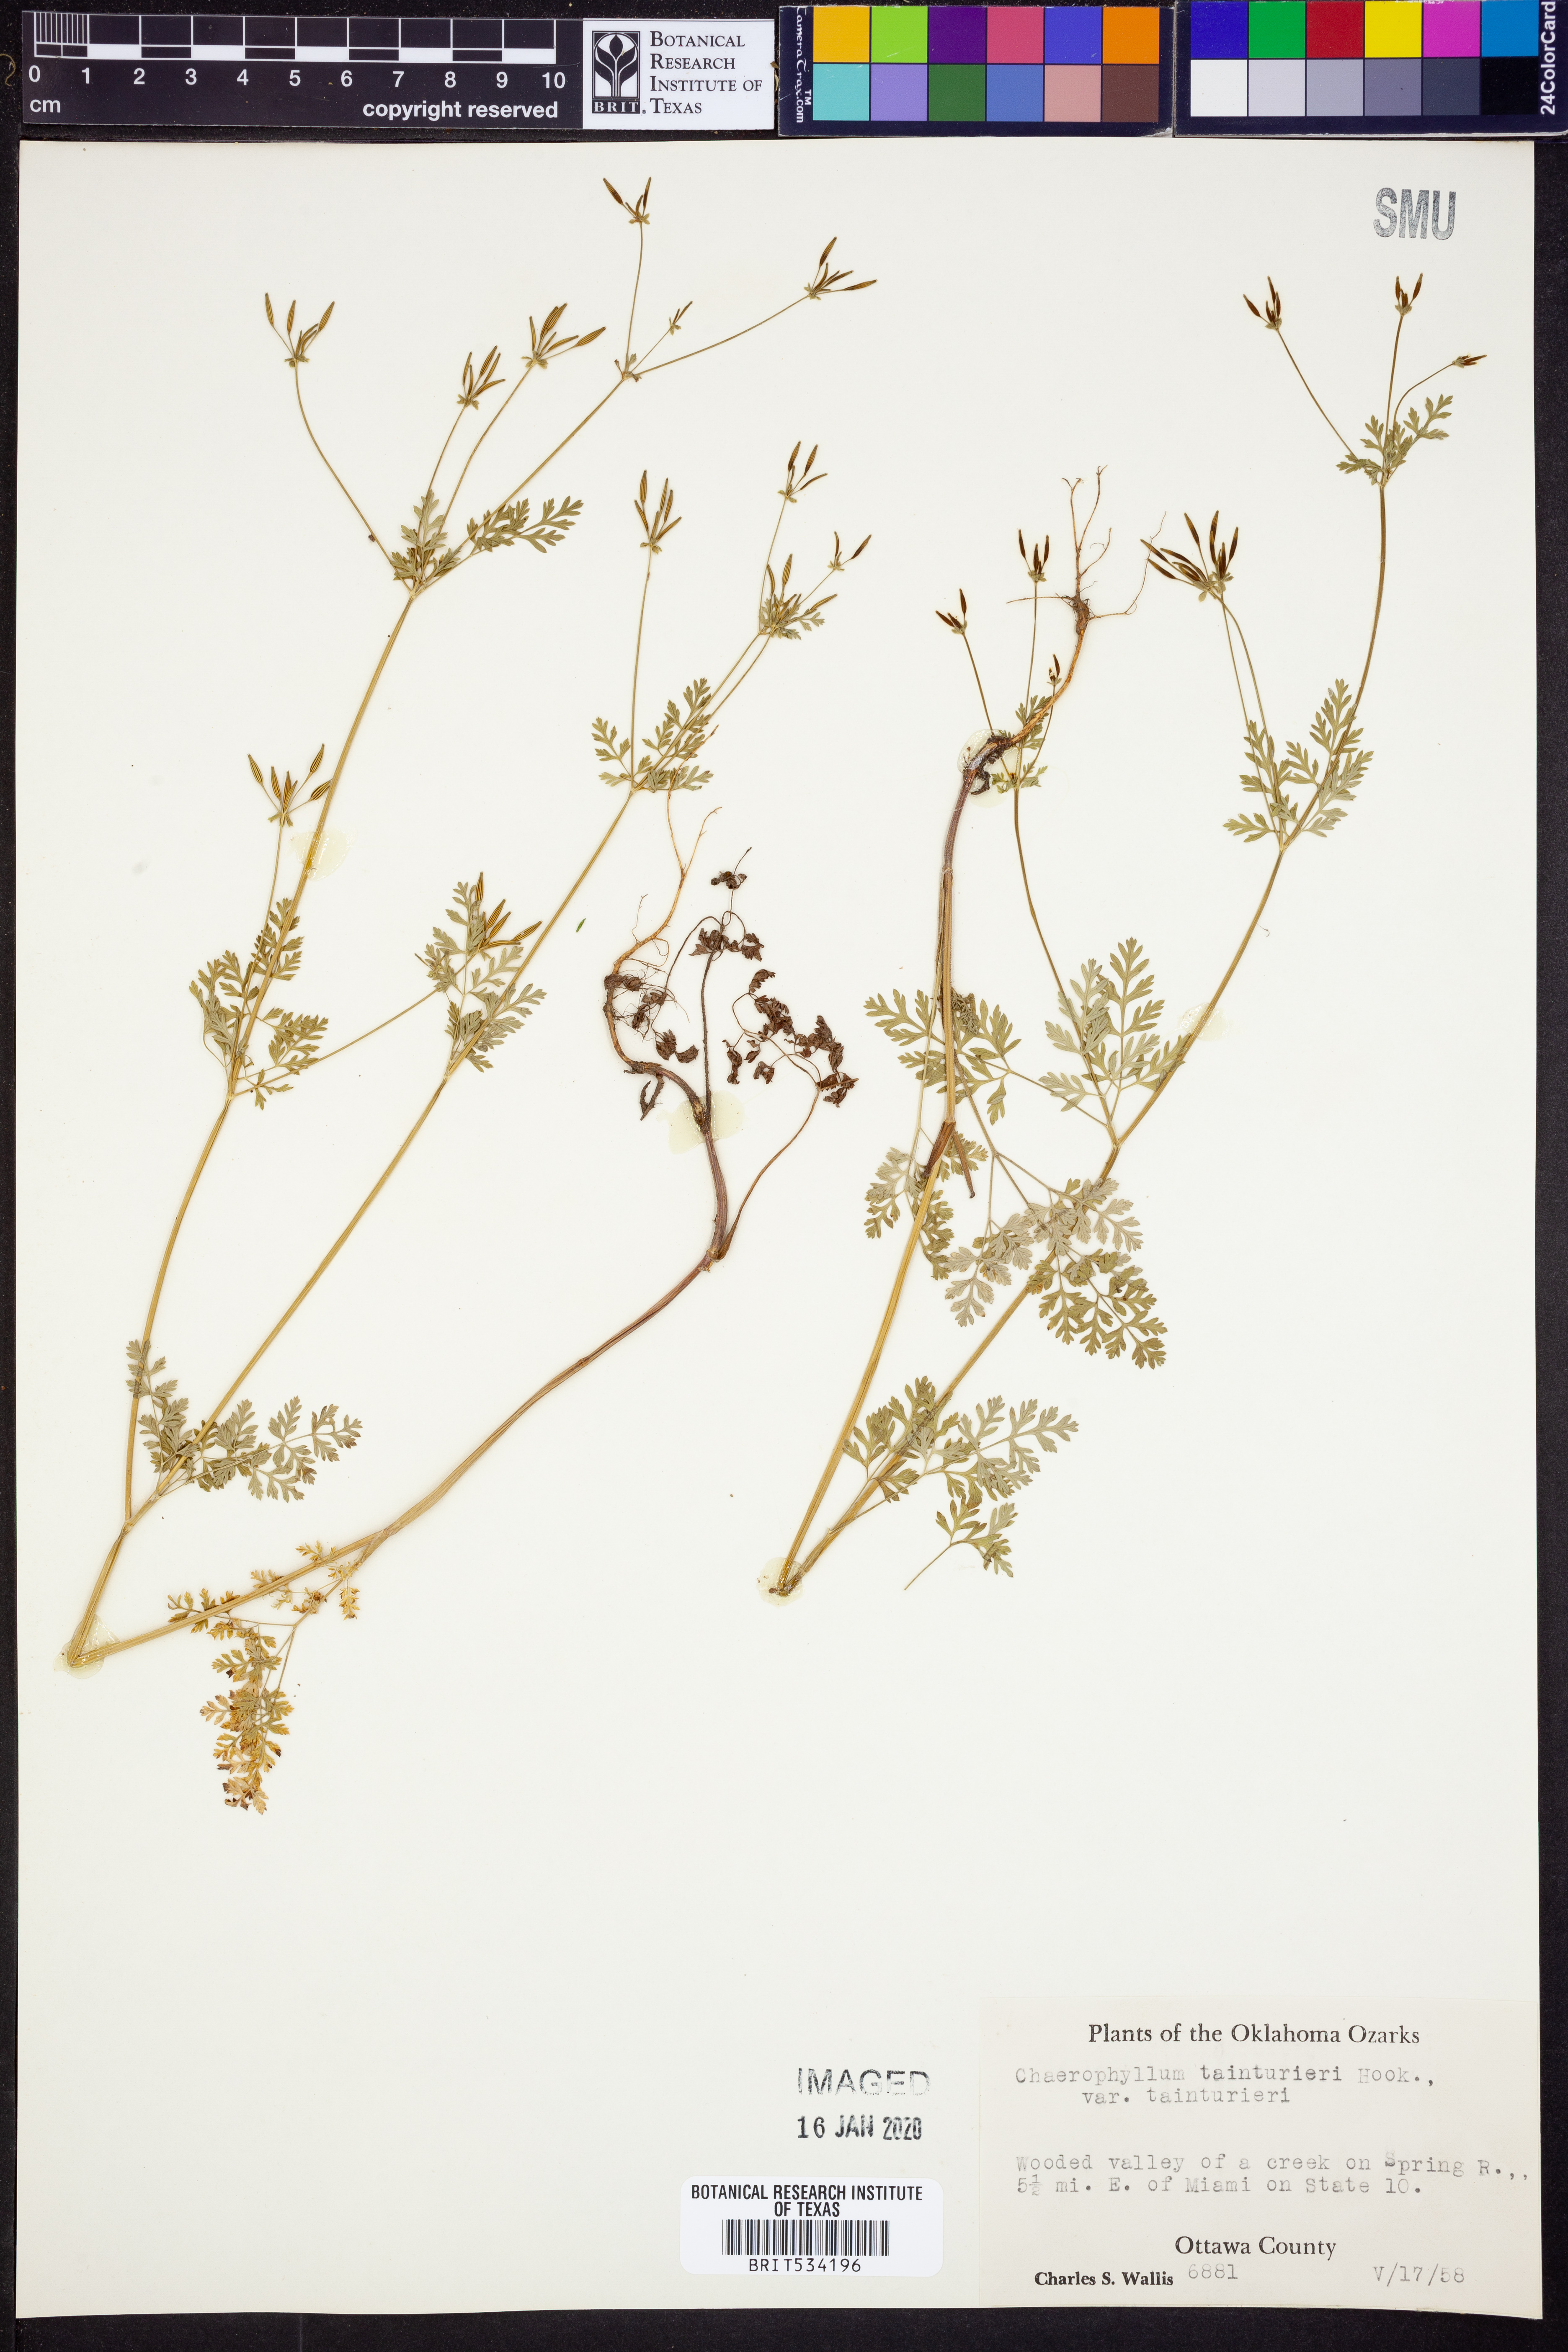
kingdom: Plantae
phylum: Tracheophyta
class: Magnoliopsida
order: Apiales
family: Apiaceae
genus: Chaerophyllum
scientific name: Chaerophyllum tainturieri
